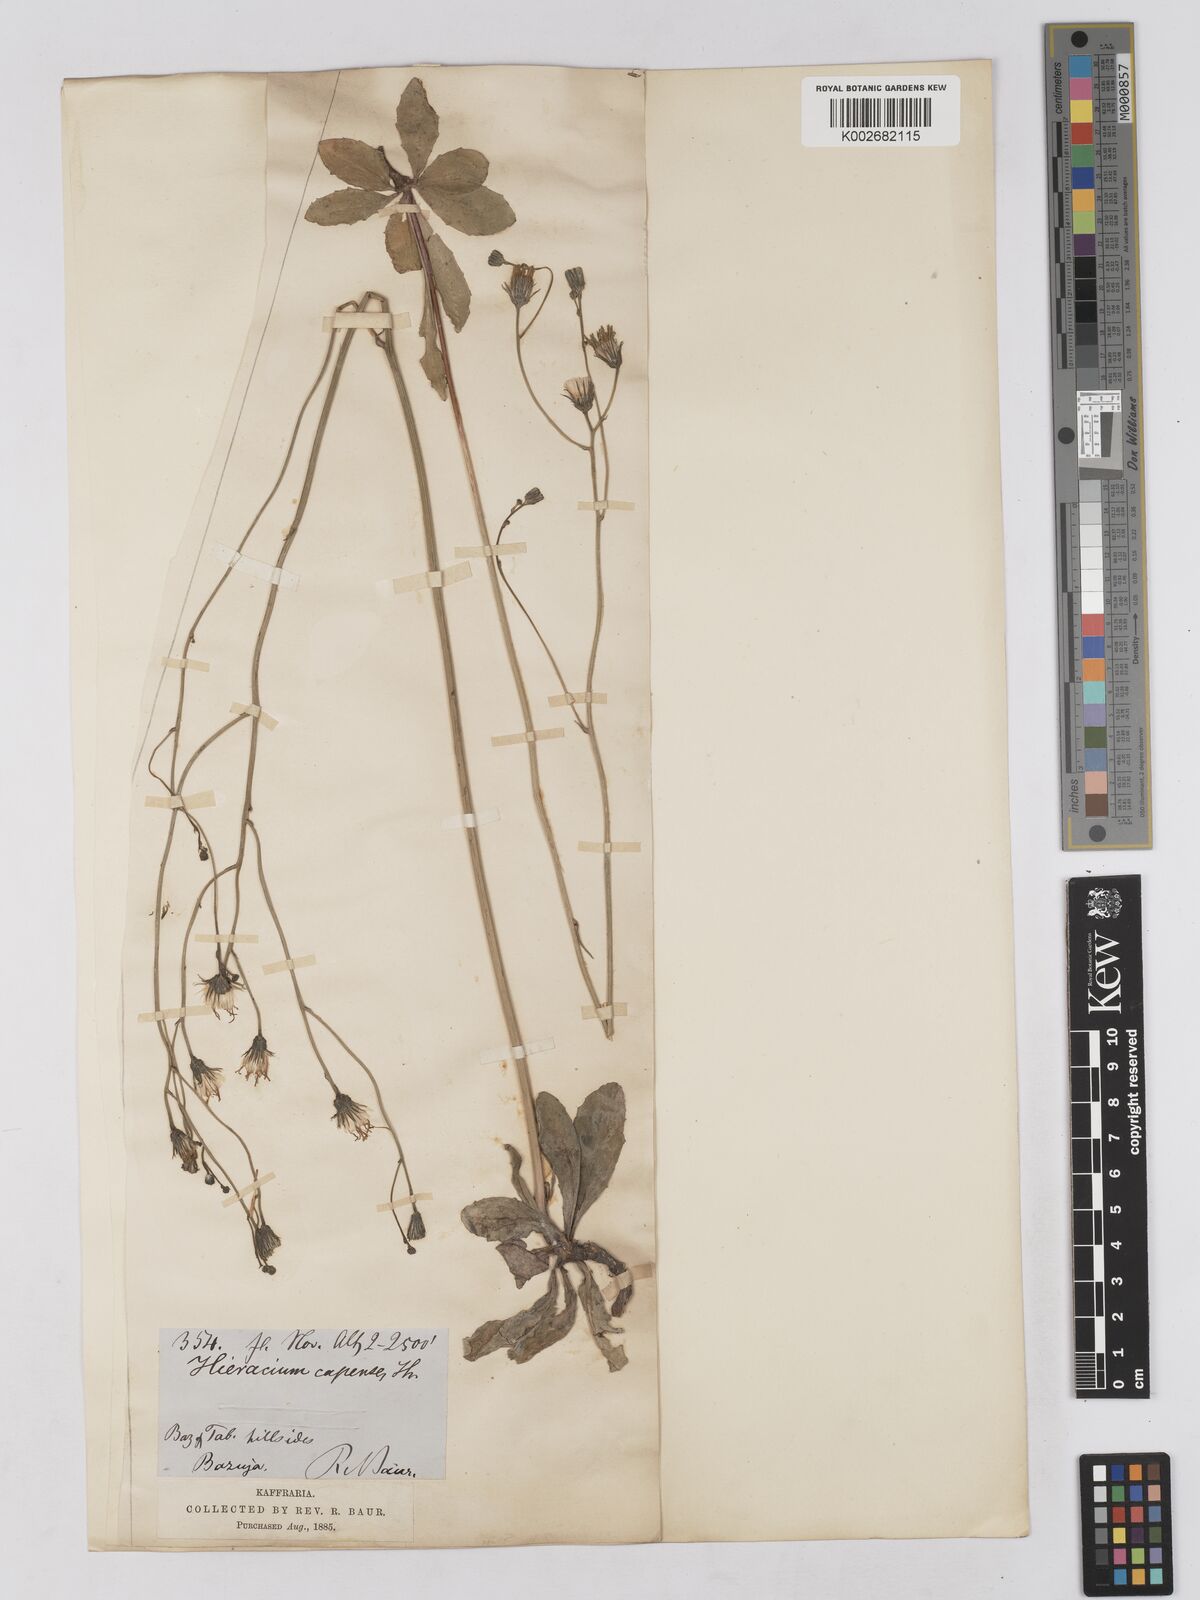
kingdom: Plantae
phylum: Tracheophyta
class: Magnoliopsida
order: Asterales
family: Asteraceae
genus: Tolpis
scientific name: Tolpis capensis
